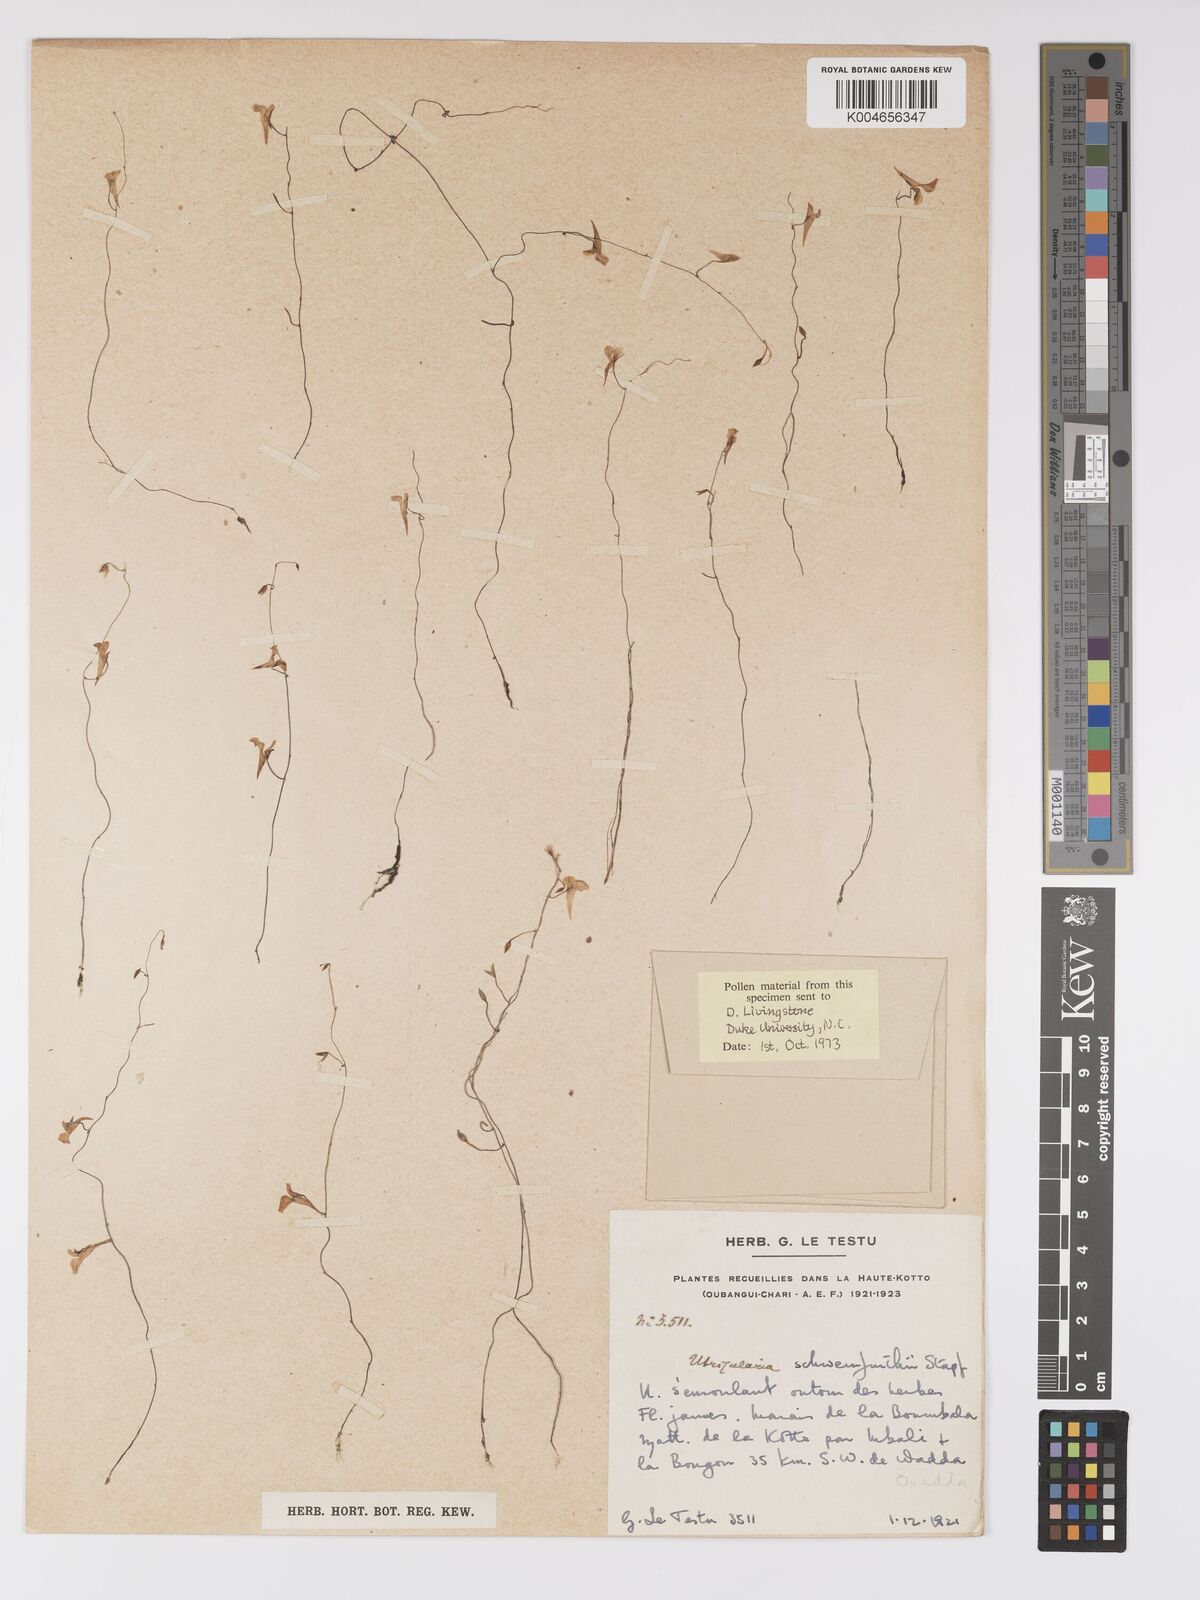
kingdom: Plantae
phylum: Tracheophyta
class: Magnoliopsida
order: Lamiales
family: Lentibulariaceae
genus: Utricularia
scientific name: Utricularia
